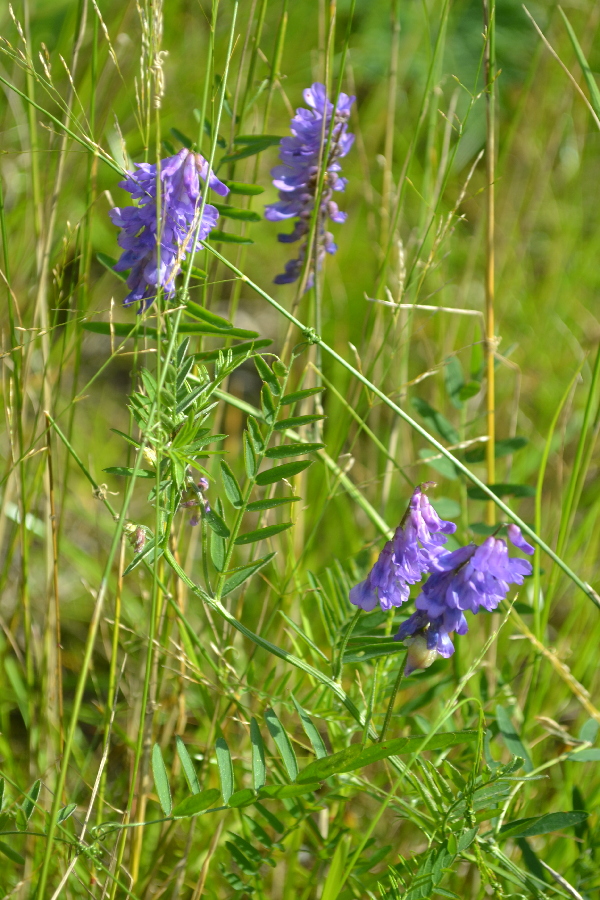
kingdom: Plantae
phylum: Tracheophyta
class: Magnoliopsida
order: Fabales
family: Fabaceae
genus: Vicia
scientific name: Vicia cracca
